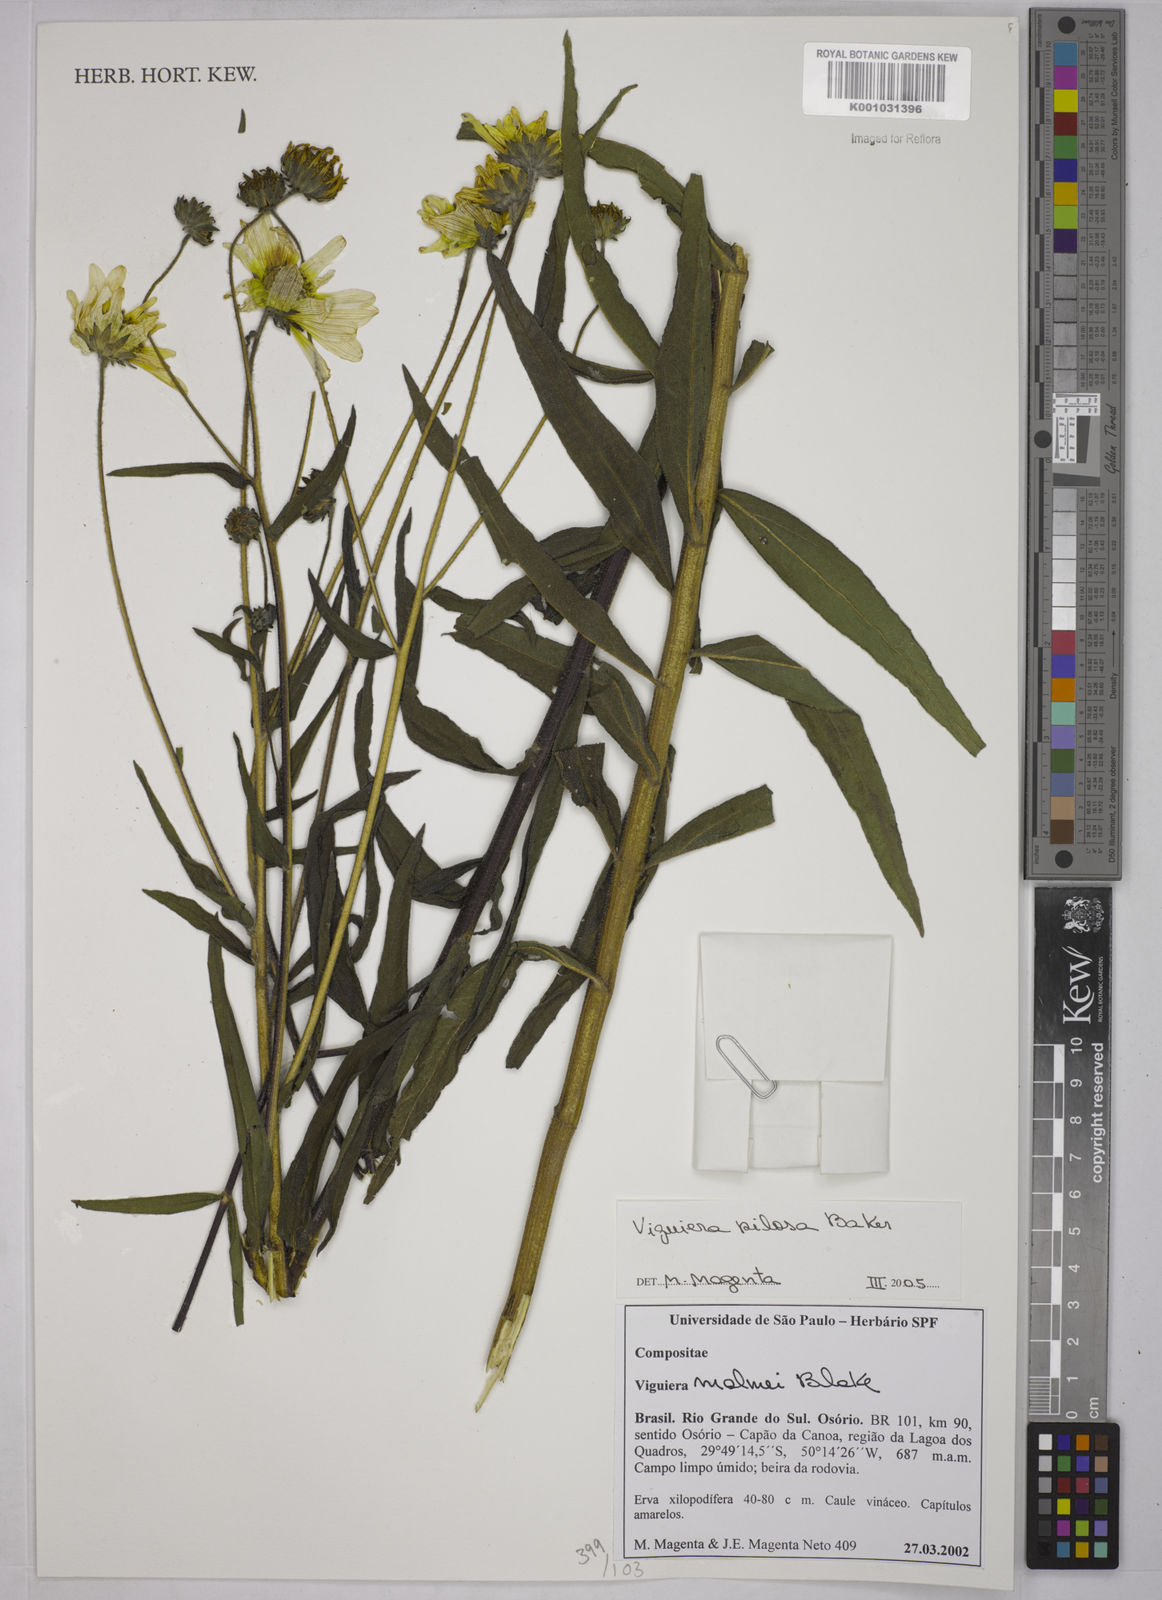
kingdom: Plantae
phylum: Tracheophyta
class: Magnoliopsida
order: Asterales
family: Asteraceae
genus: Aldama
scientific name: Aldama pilosa
